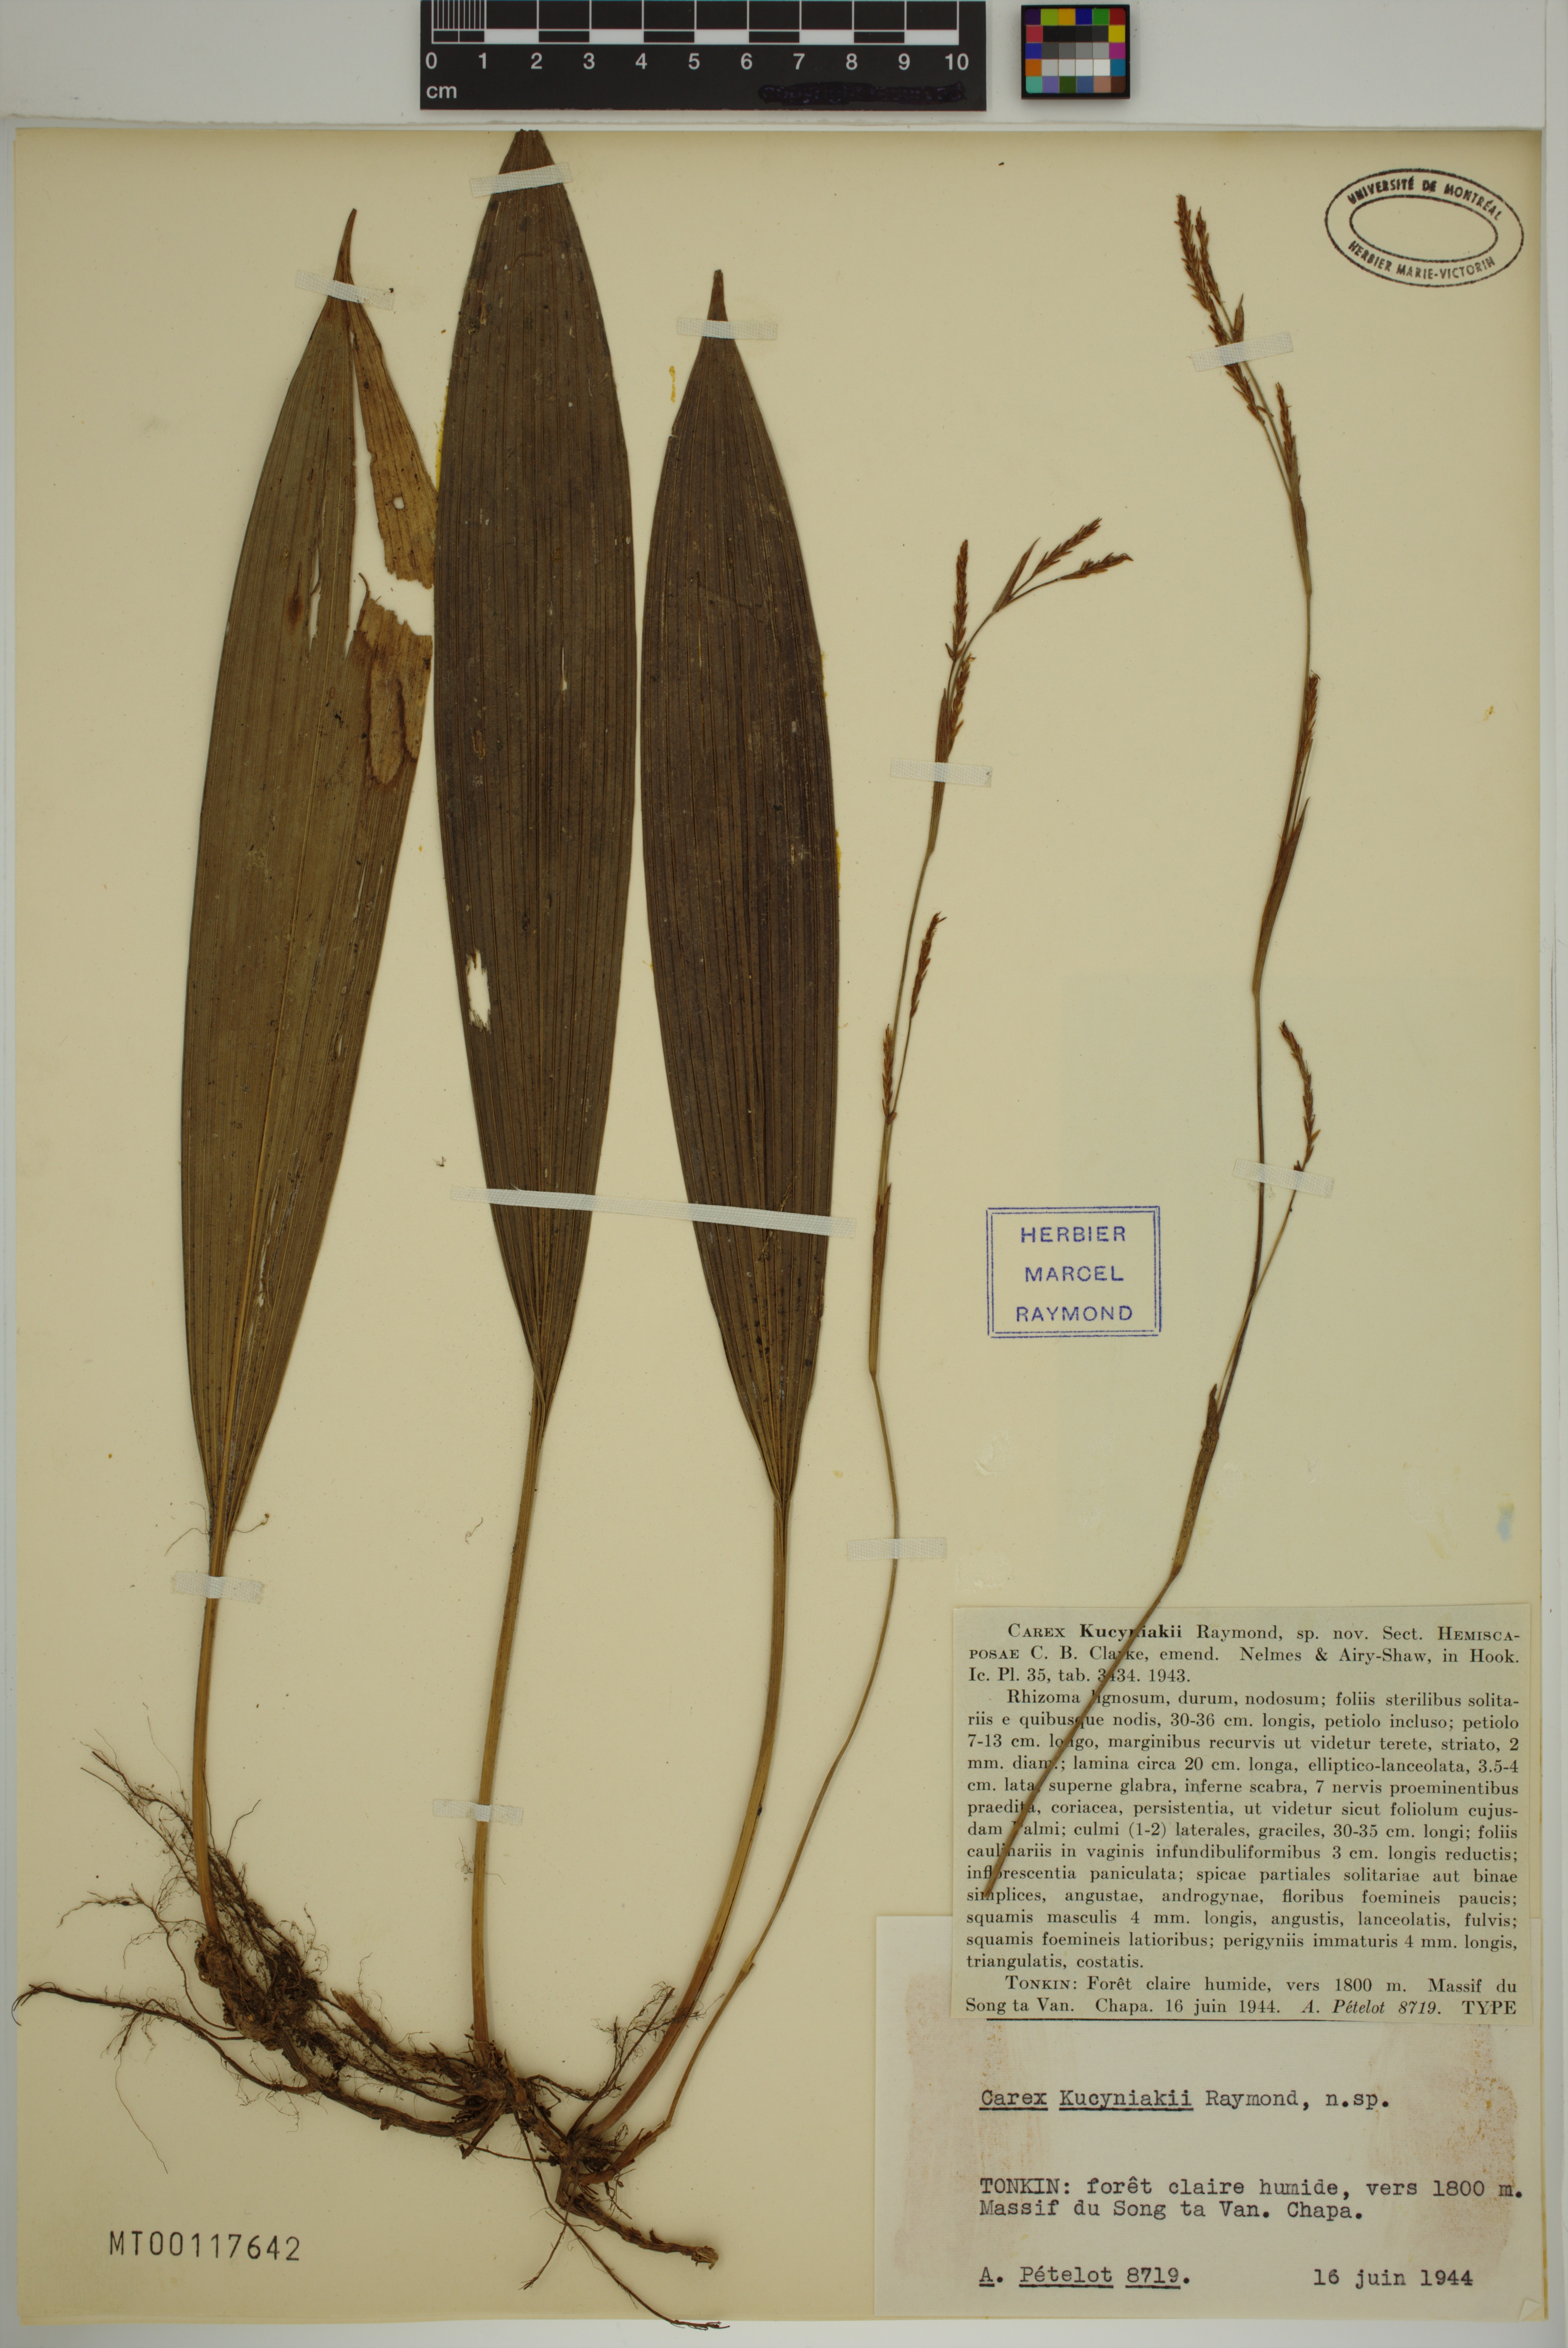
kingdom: Plantae
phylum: Tracheophyta
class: Liliopsida
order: Poales
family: Cyperaceae
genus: Carex
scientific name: Carex kucyniakii
